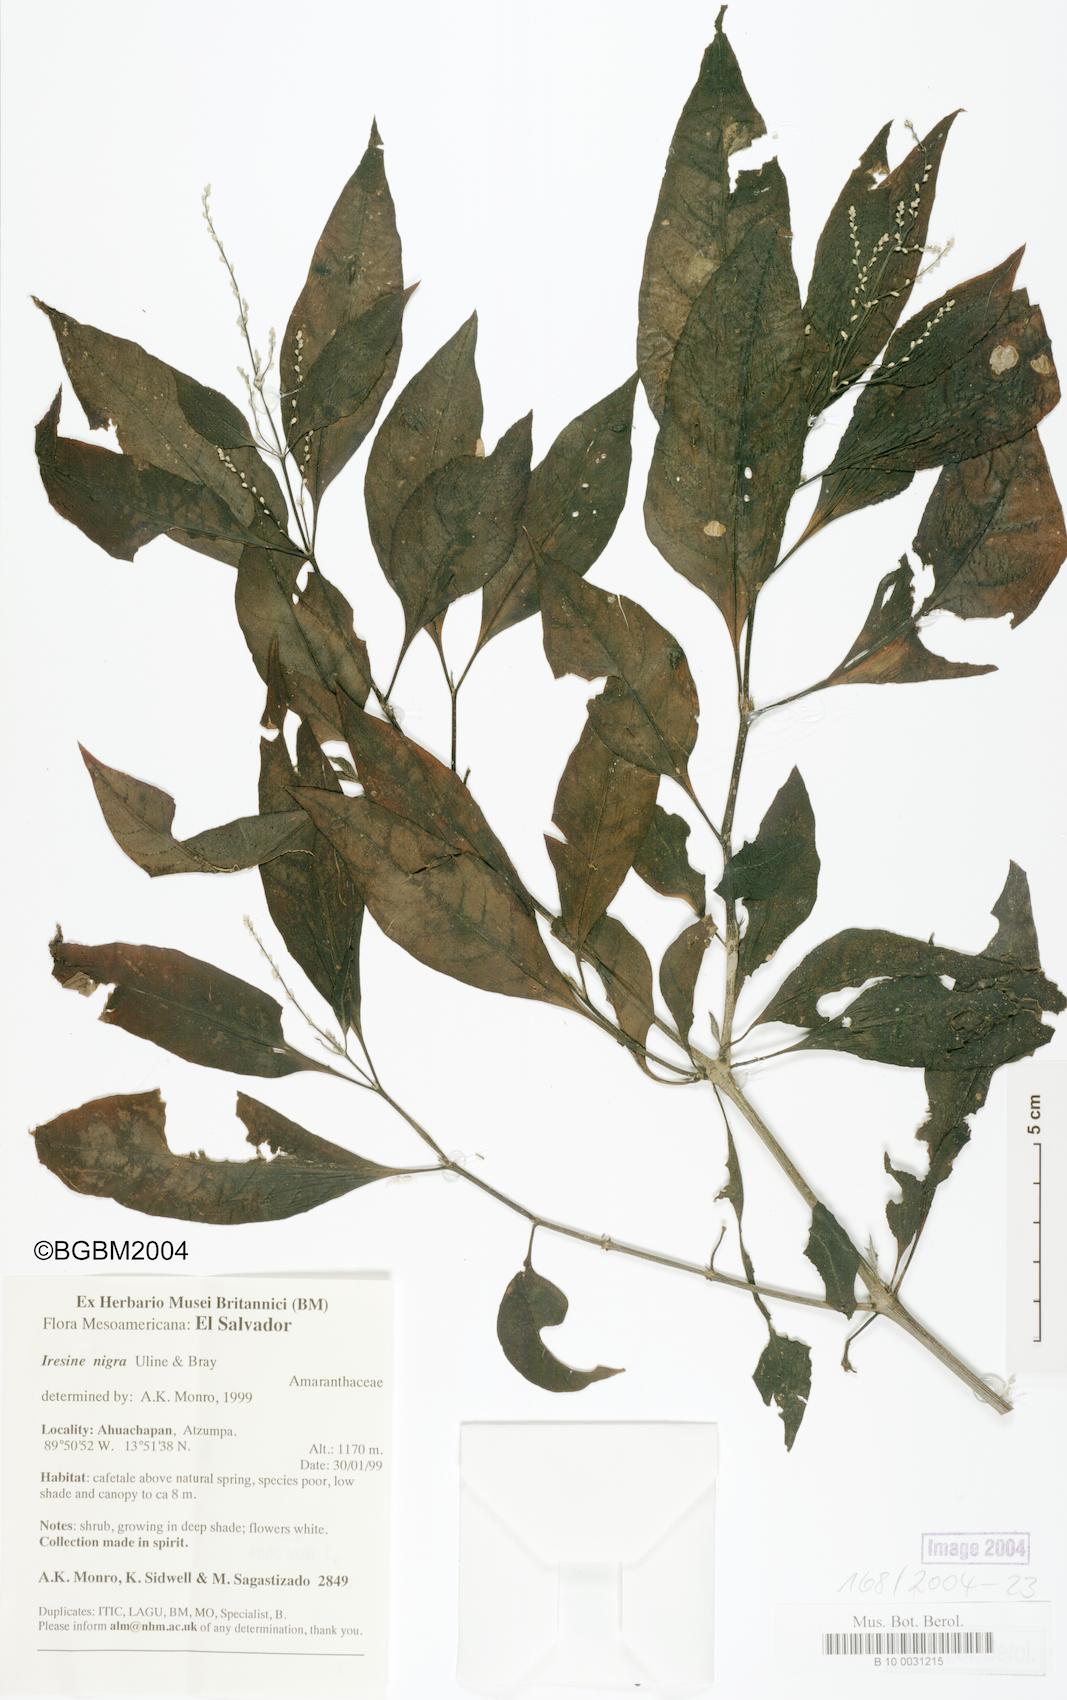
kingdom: Plantae
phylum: Tracheophyta
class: Magnoliopsida
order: Caryophyllales
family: Amaranthaceae
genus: Iresine
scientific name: Iresine nigra
